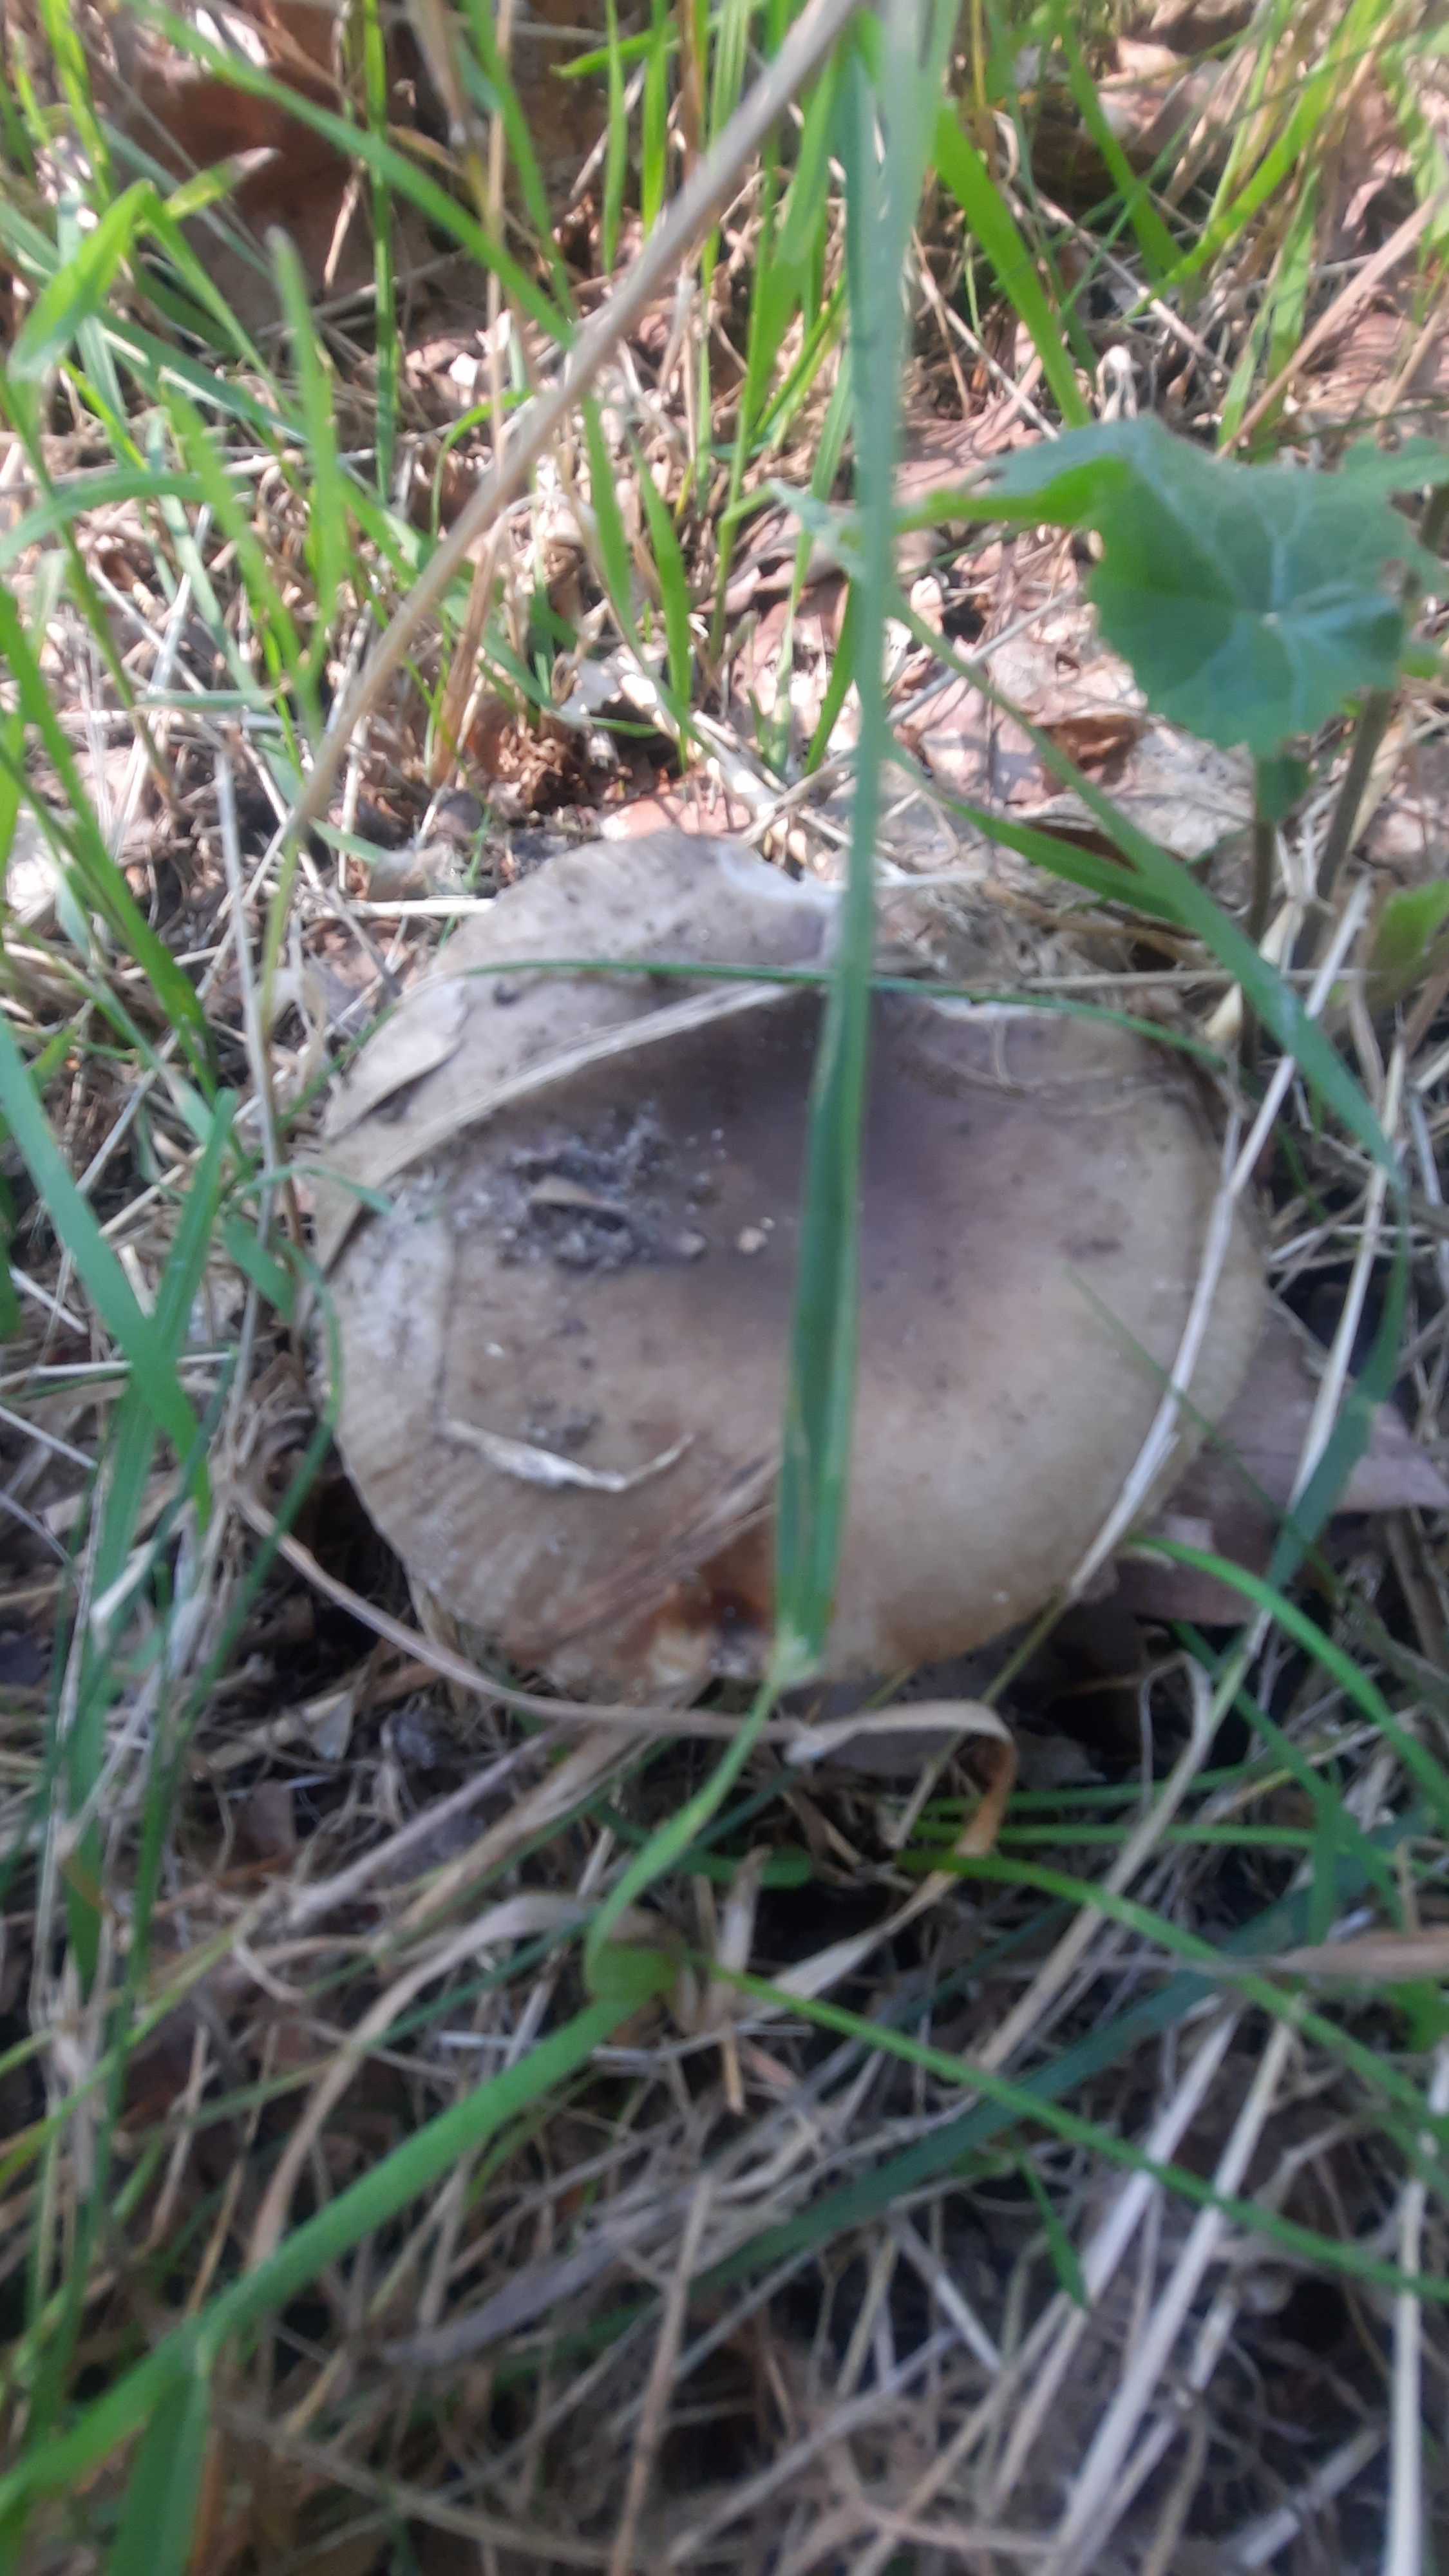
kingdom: Fungi
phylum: Basidiomycota
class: Agaricomycetes
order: Russulales
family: Russulaceae
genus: Russula
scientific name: Russula
